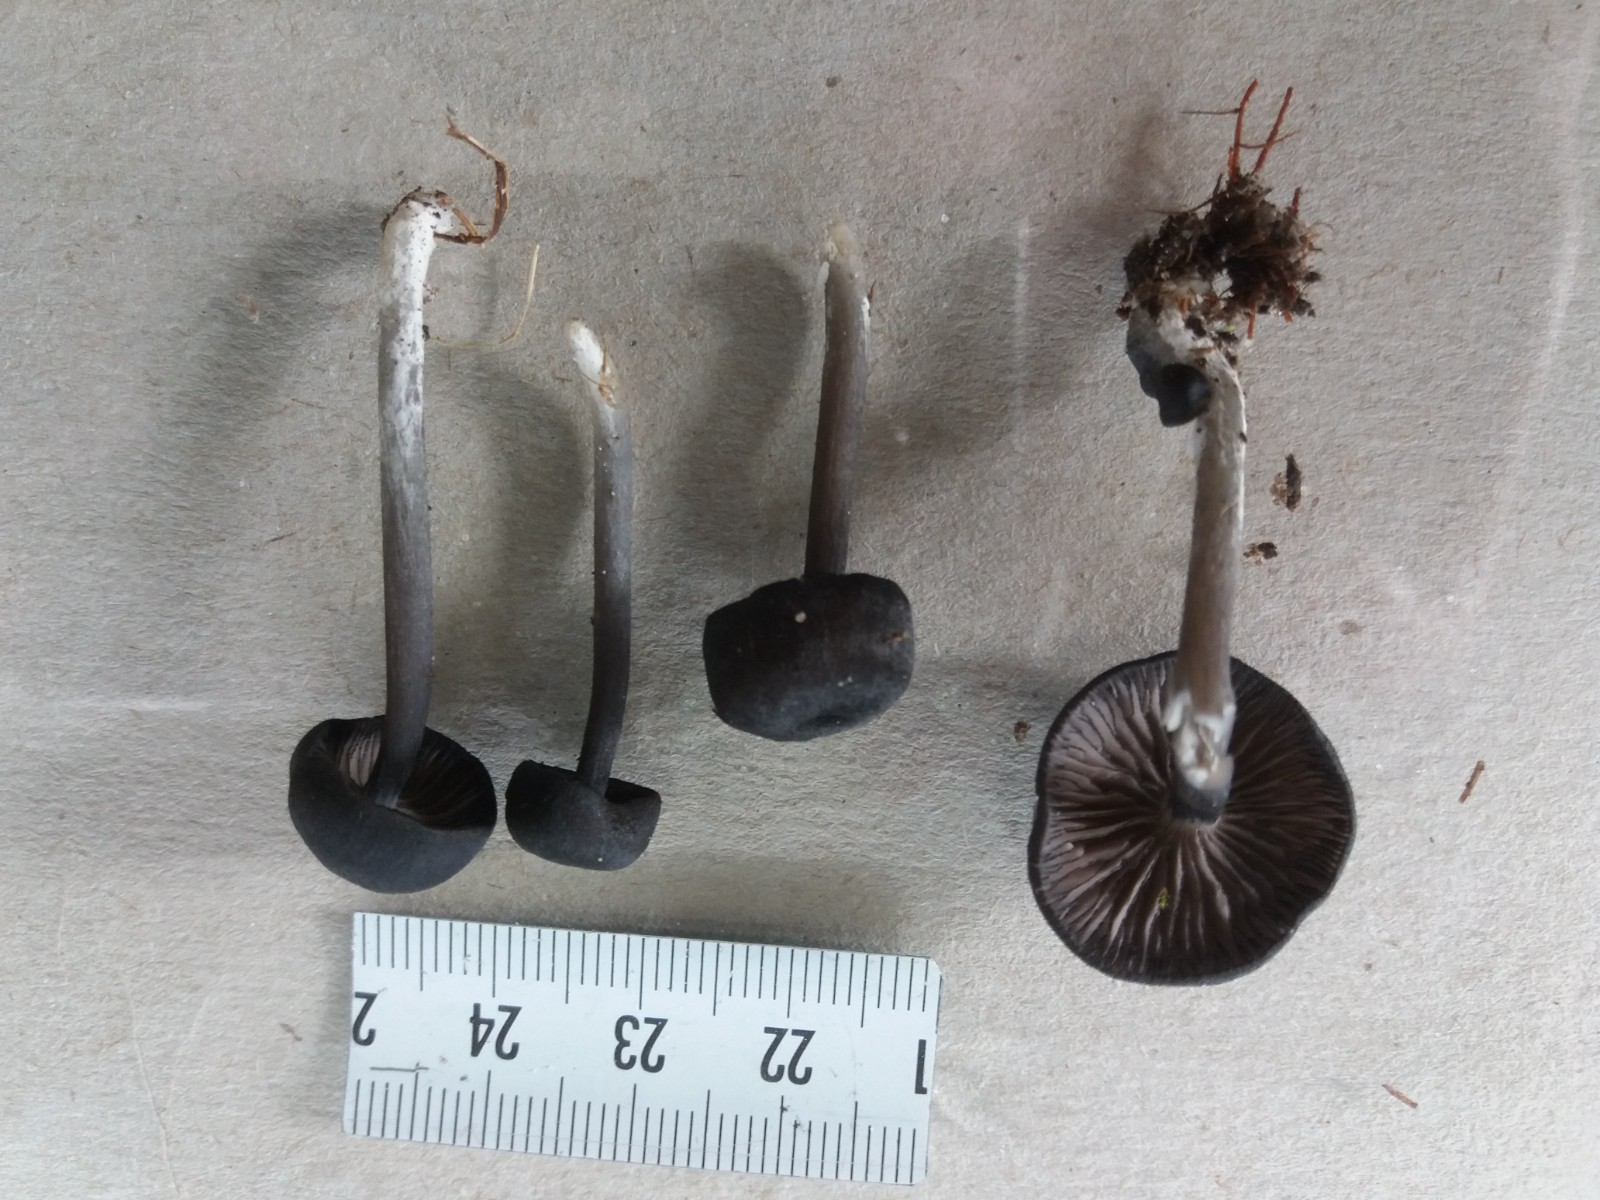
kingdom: Fungi
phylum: Basidiomycota
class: Agaricomycetes
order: Agaricales
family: Entolomataceae
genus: Entoloma
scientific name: Entoloma
